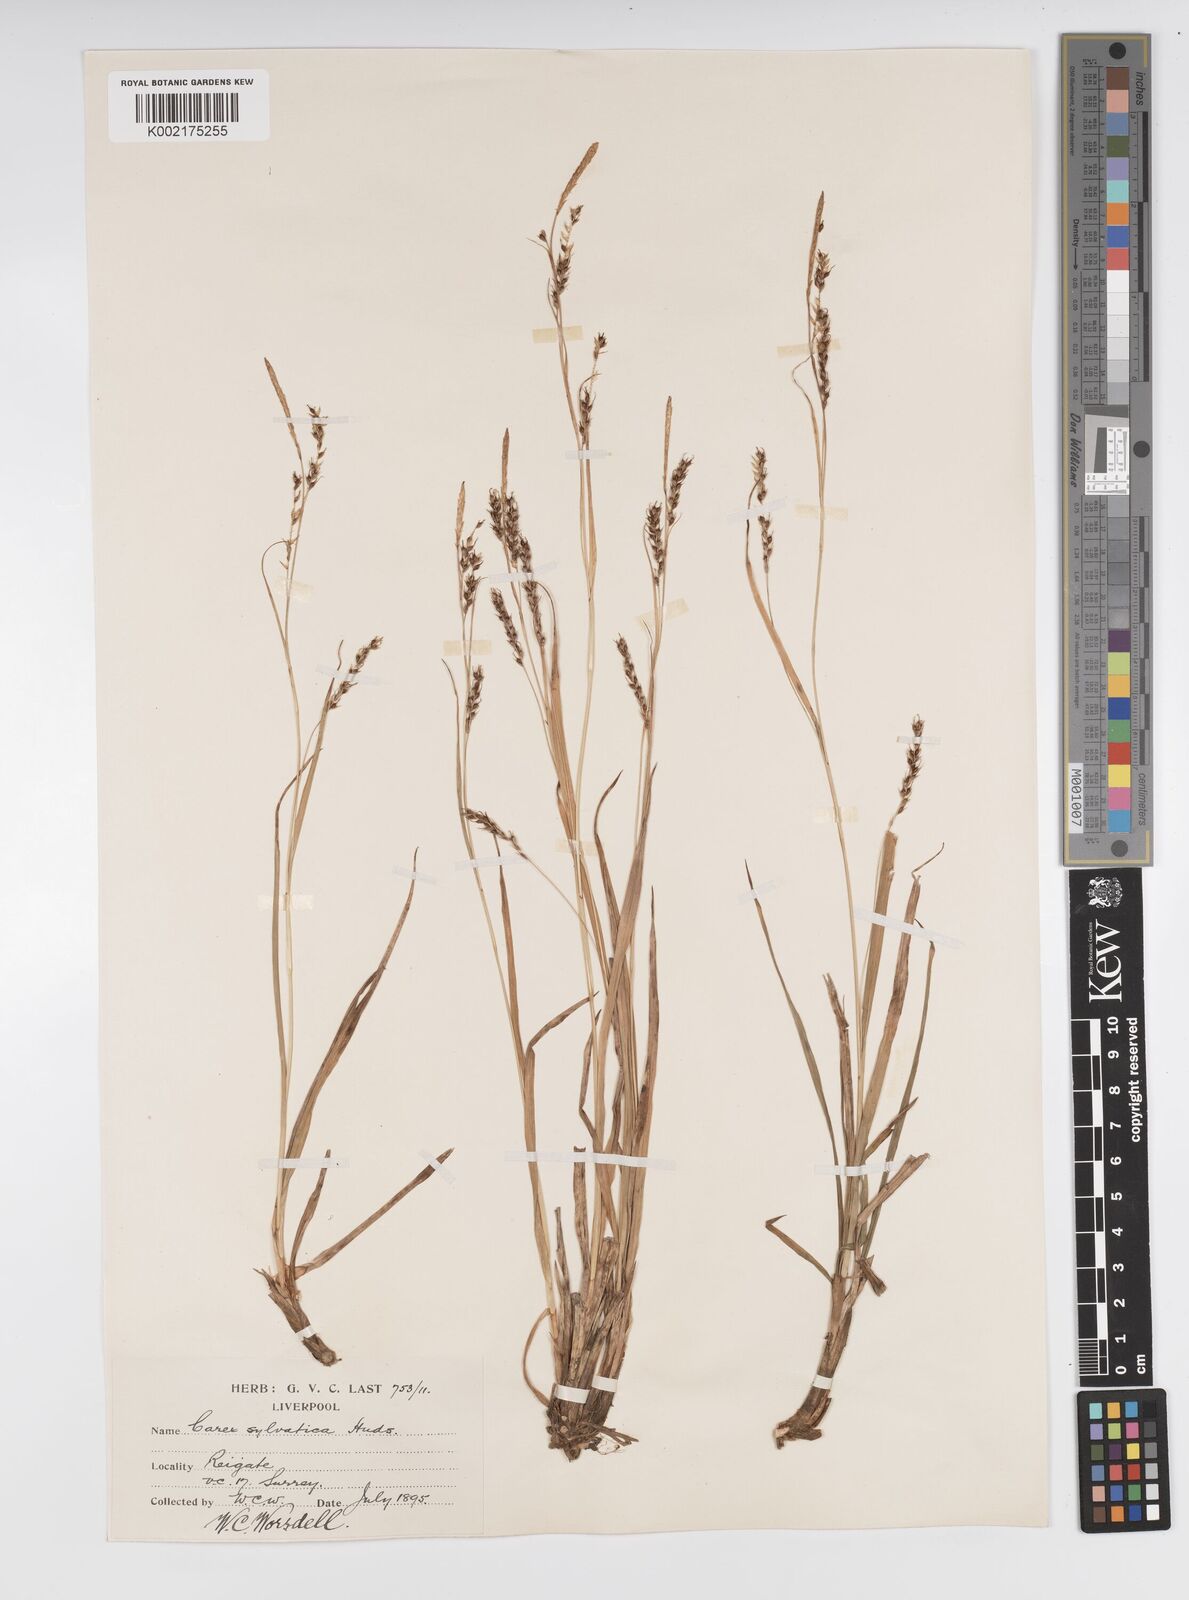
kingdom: Plantae
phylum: Tracheophyta
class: Liliopsida
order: Poales
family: Cyperaceae
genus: Carex
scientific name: Carex sylvatica
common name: Wood-sedge
